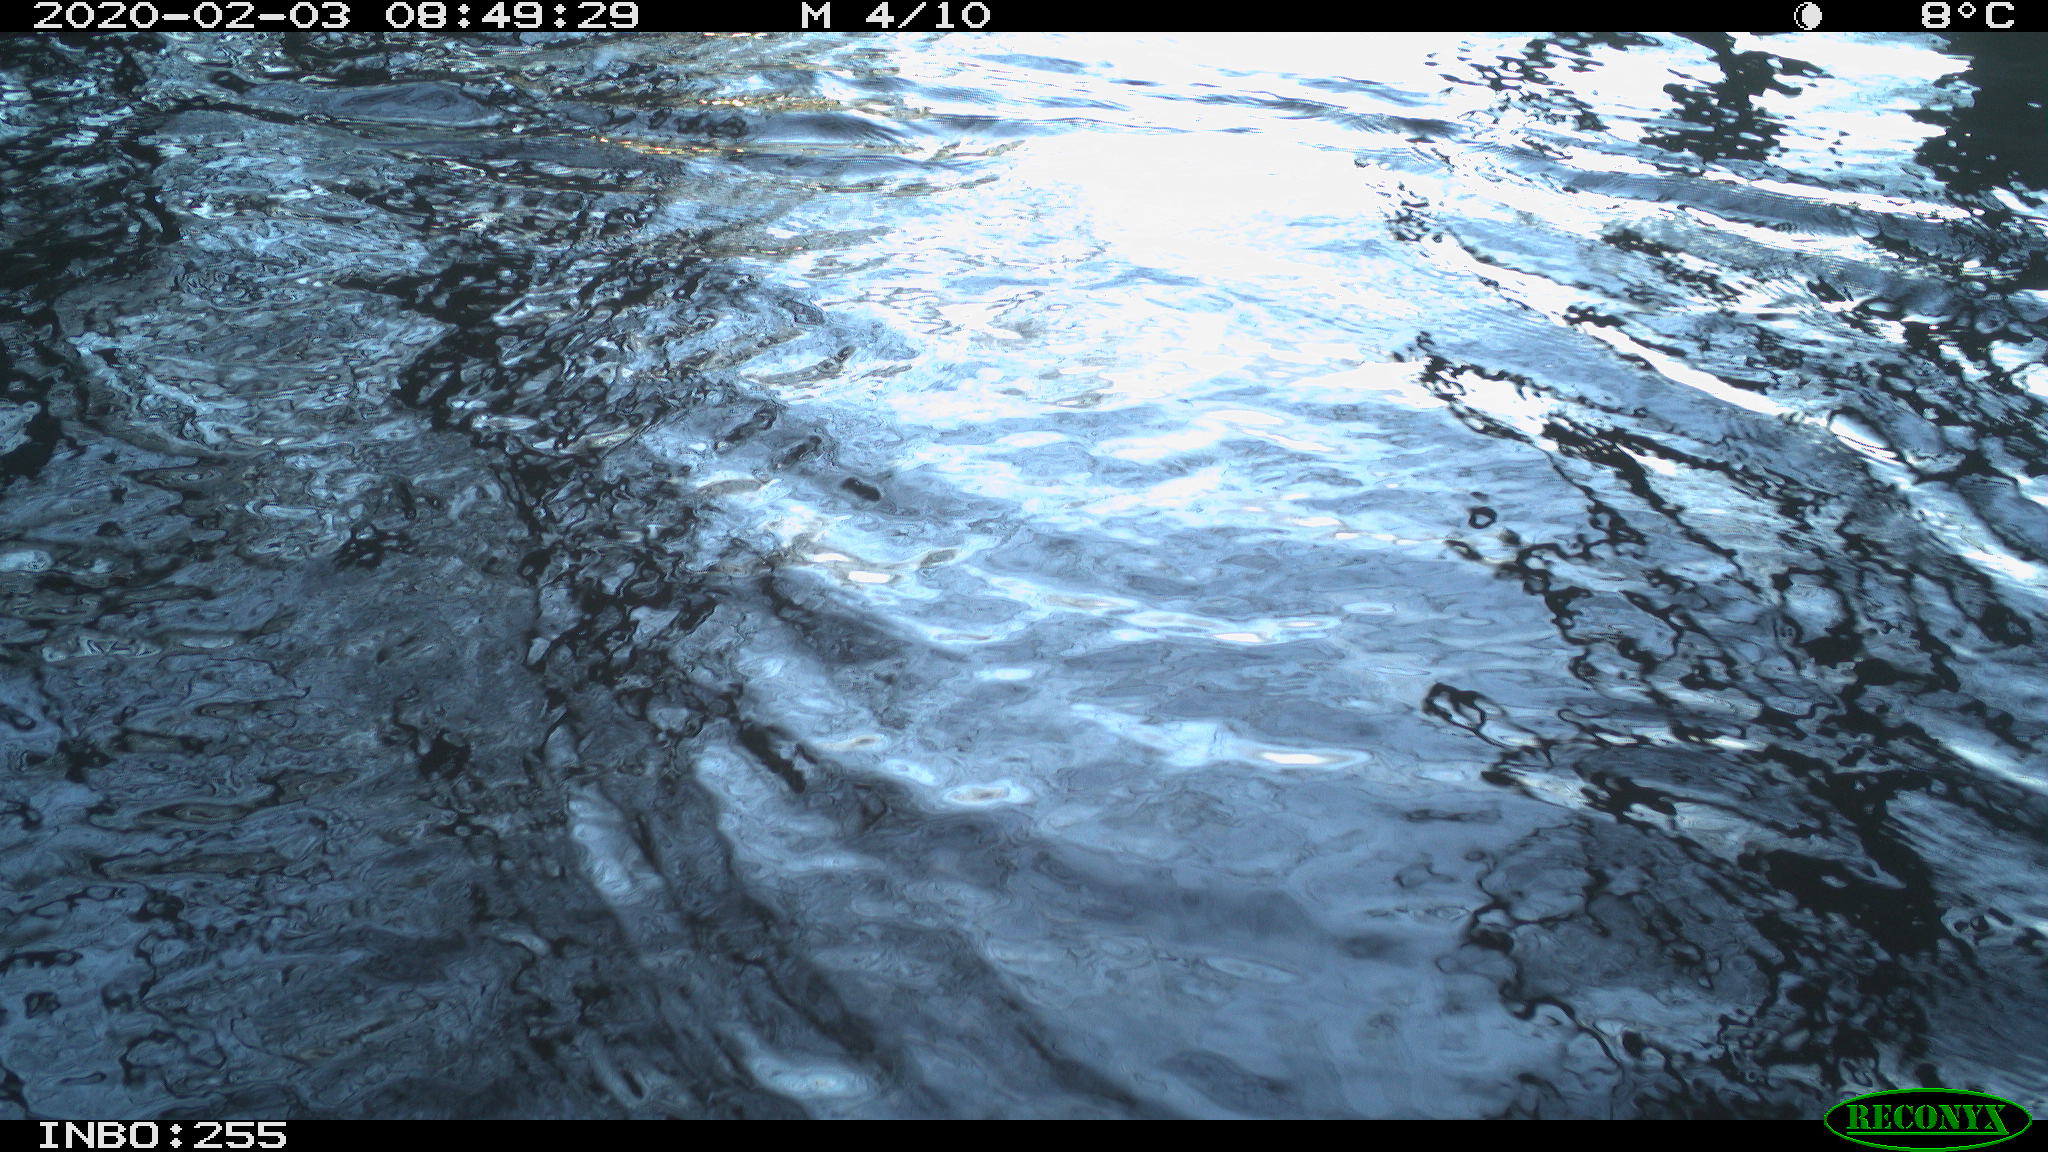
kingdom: Animalia
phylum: Chordata
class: Aves
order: Gruiformes
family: Rallidae
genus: Fulica
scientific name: Fulica atra
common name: Eurasian coot
